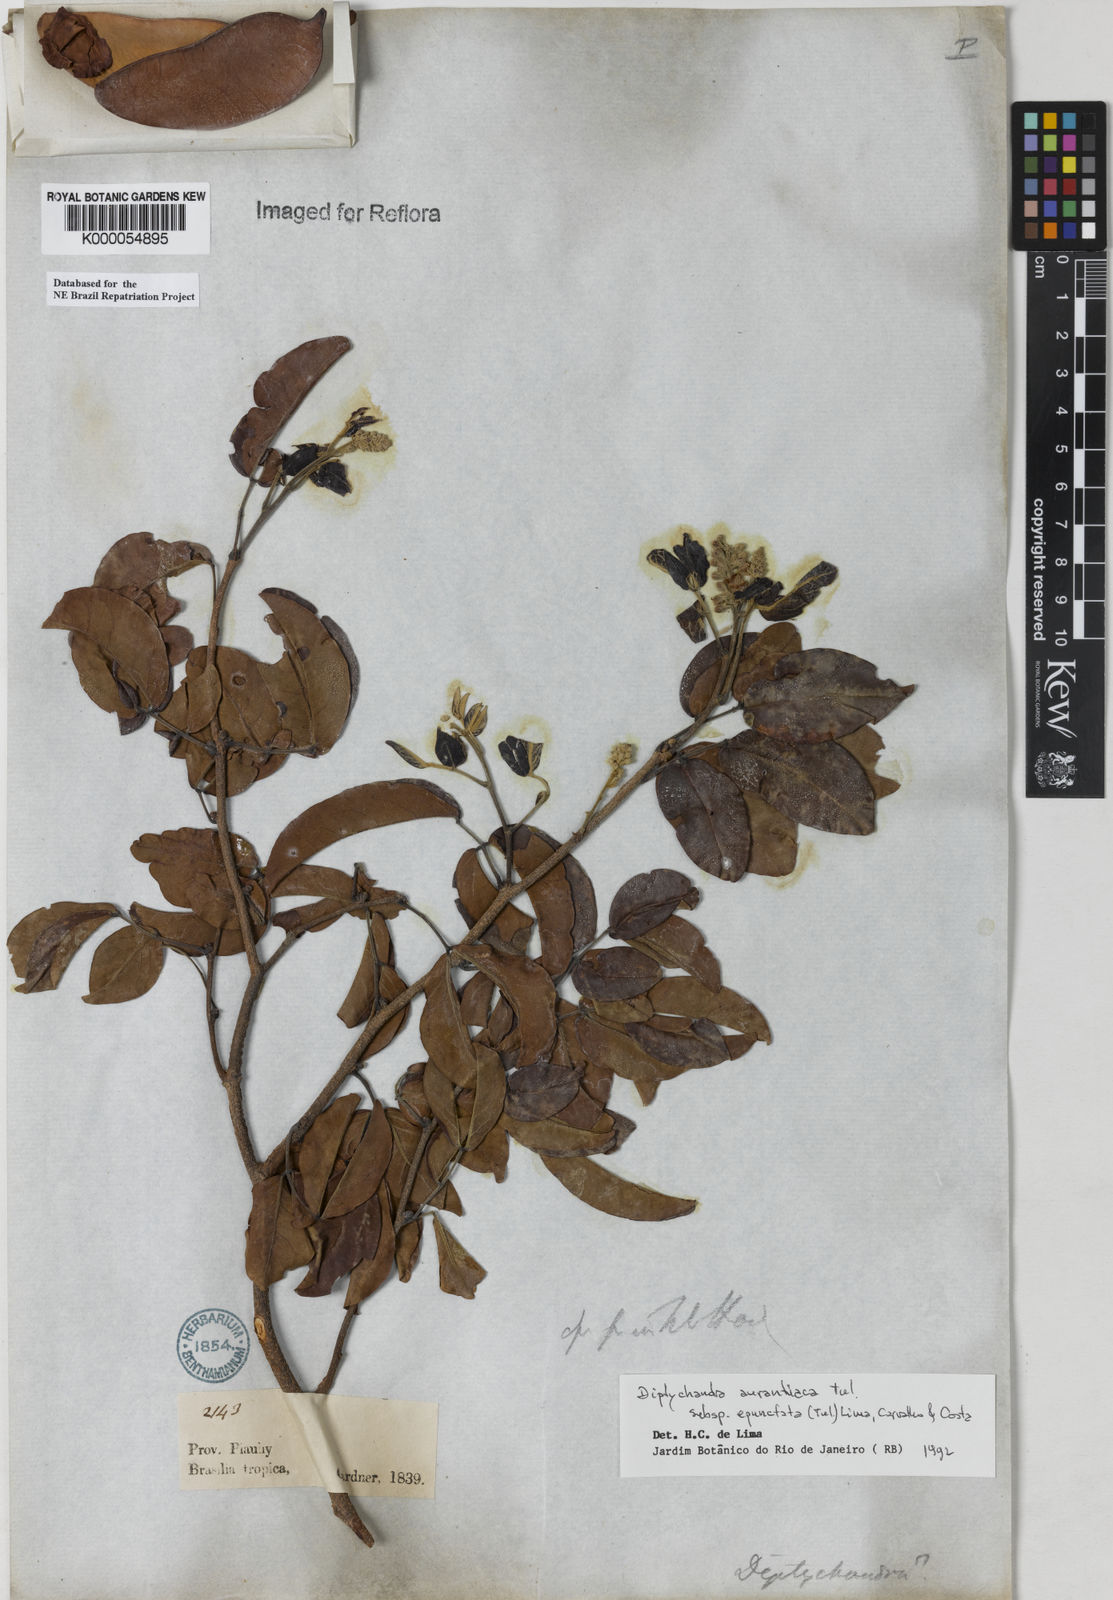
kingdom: Plantae
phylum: Tracheophyta
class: Magnoliopsida
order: Fabales
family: Fabaceae
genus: Diptychandra
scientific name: Diptychandra aurantiaca
